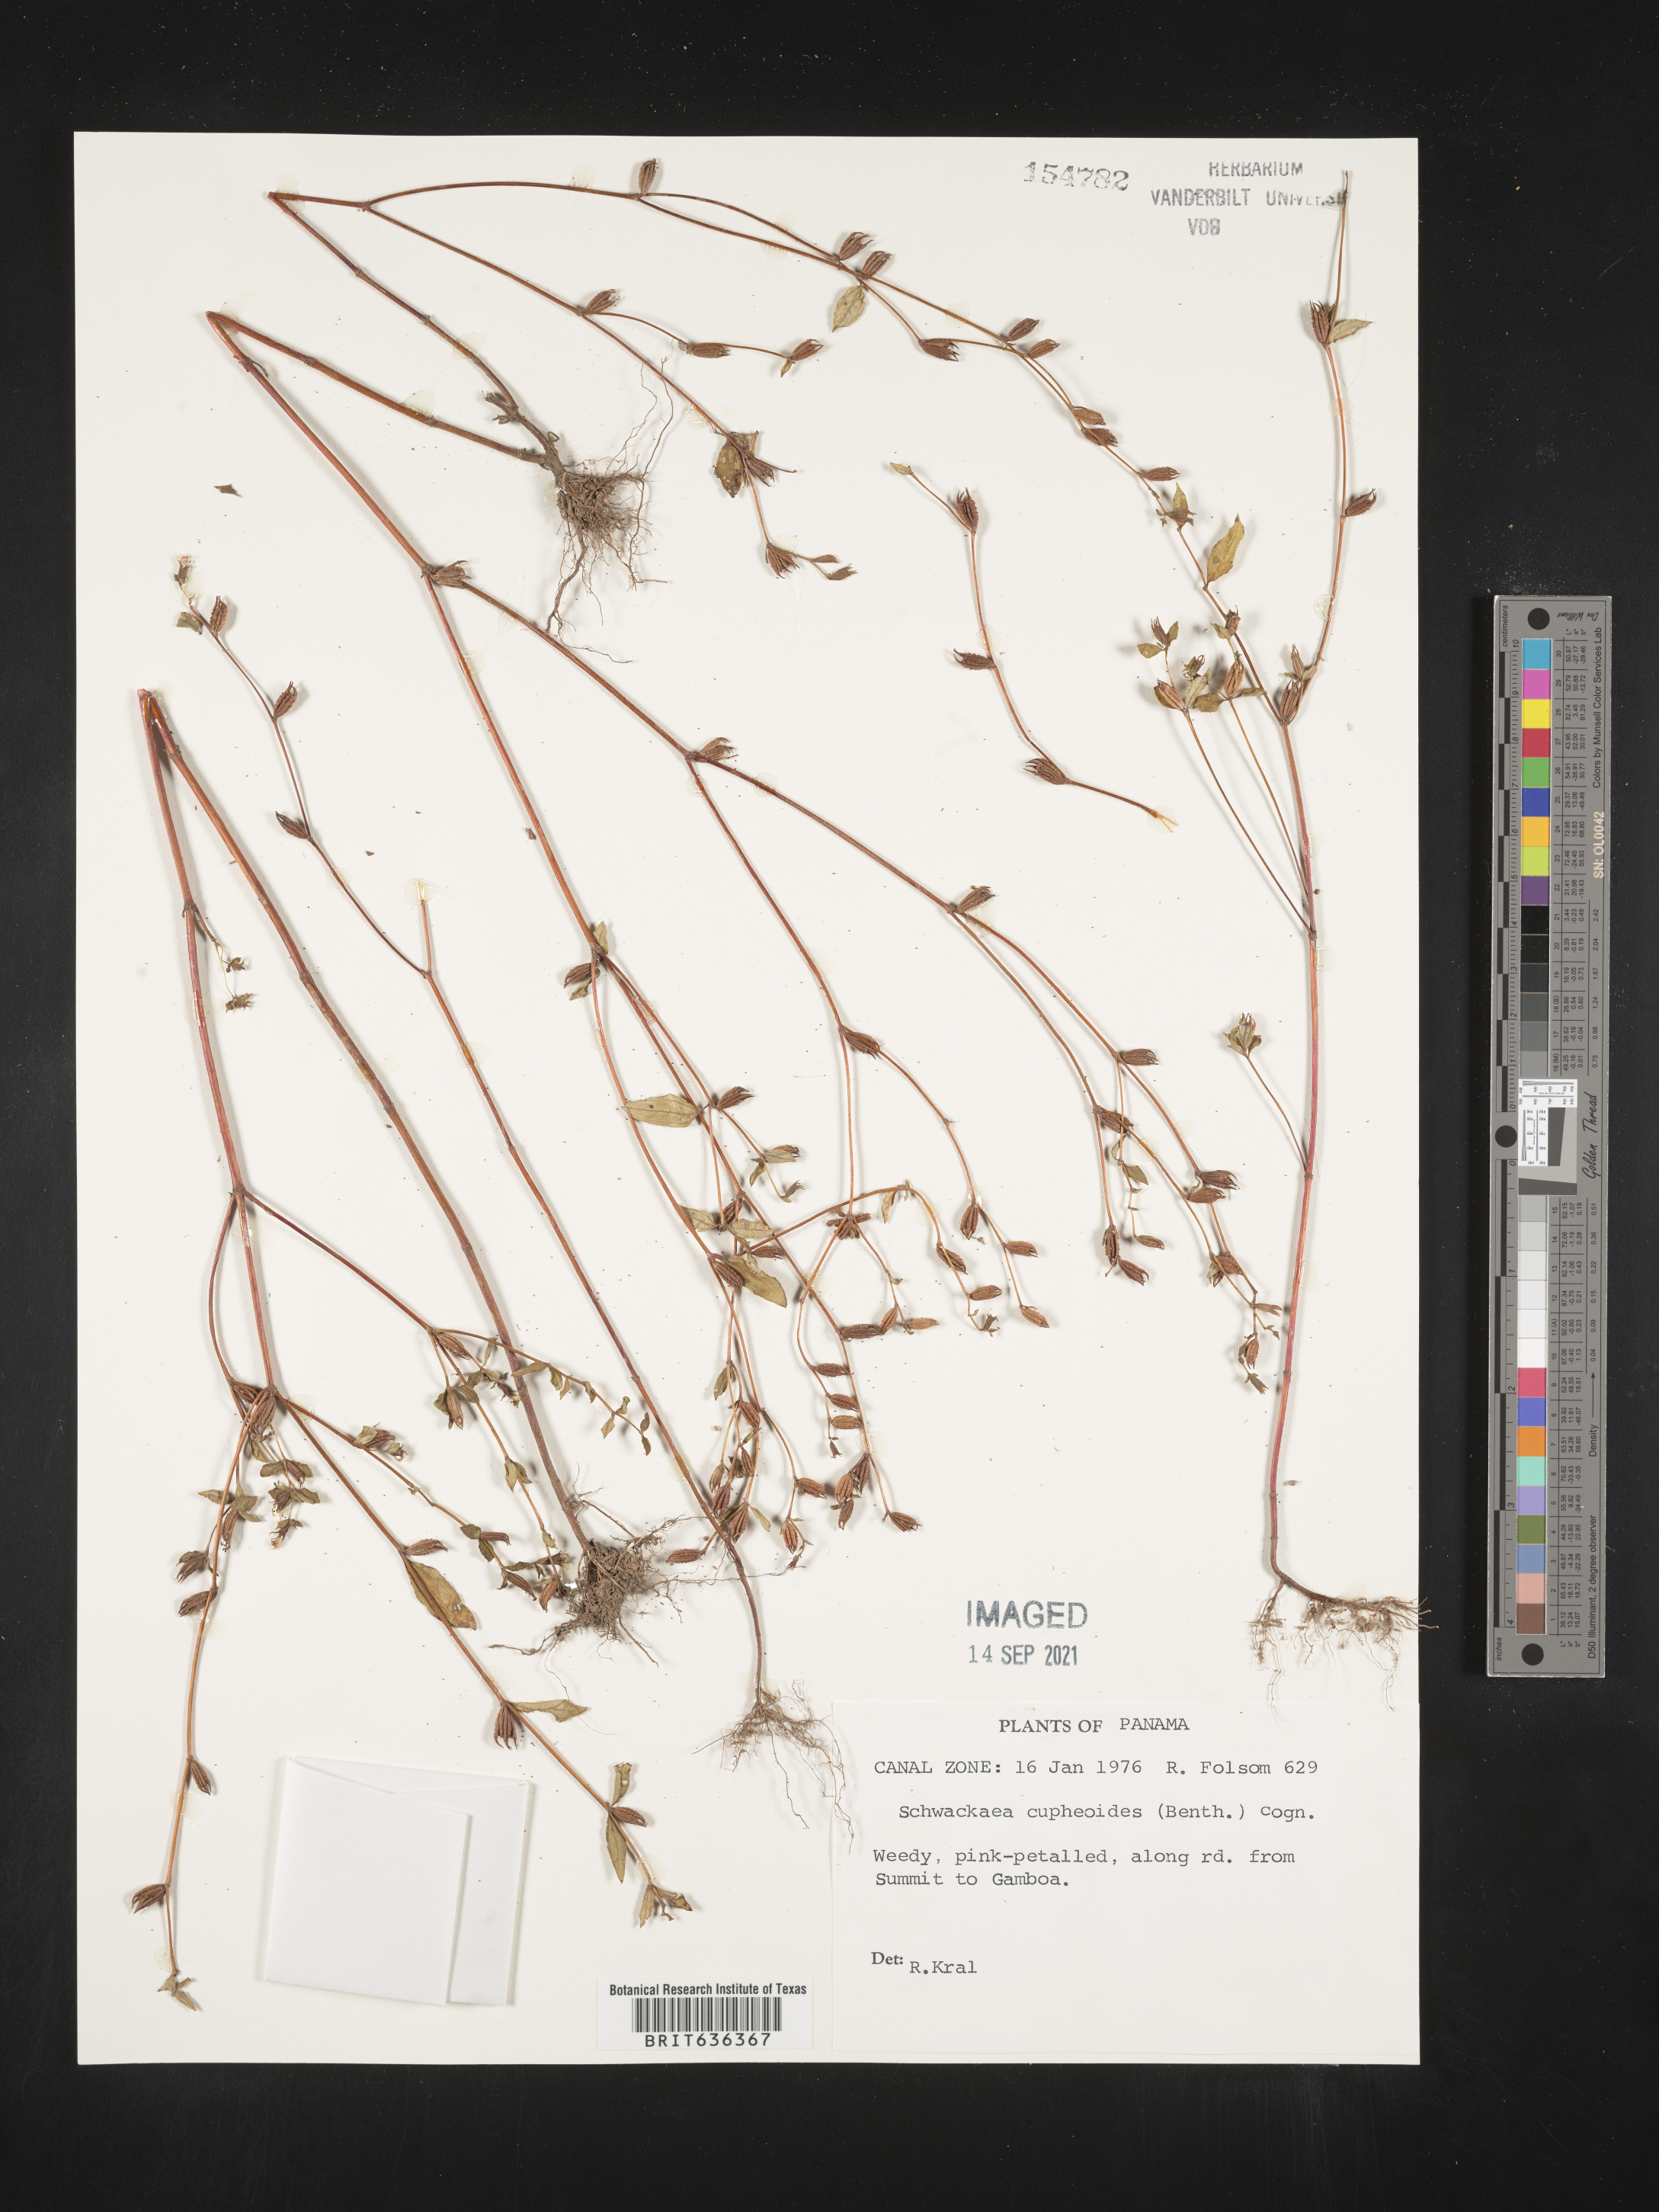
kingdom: Plantae
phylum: Tracheophyta
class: Magnoliopsida
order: Myrtales
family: Melastomataceae
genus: Schwackaea
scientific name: Schwackaea
